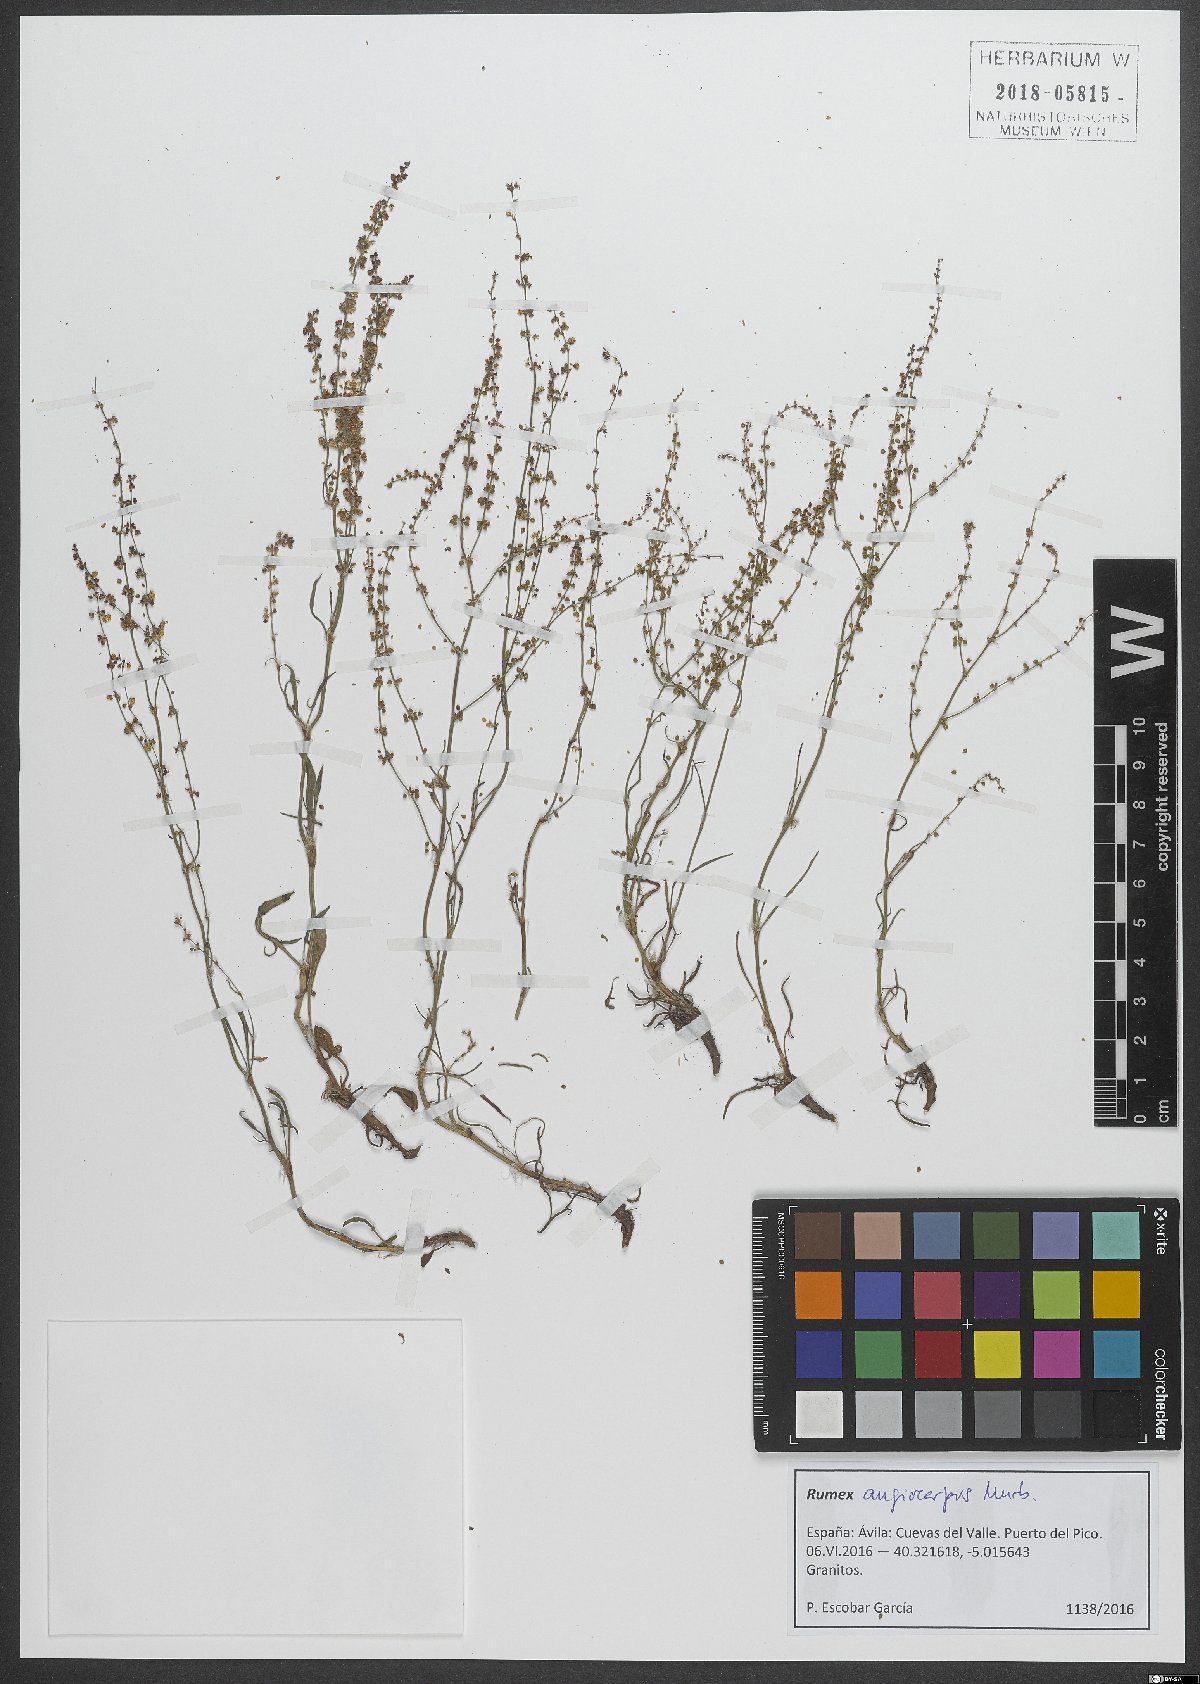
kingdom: Plantae
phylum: Tracheophyta
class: Magnoliopsida
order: Caryophyllales
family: Polygonaceae
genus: Rumex
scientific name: Rumex acetosella
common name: Common sheep sorrel
